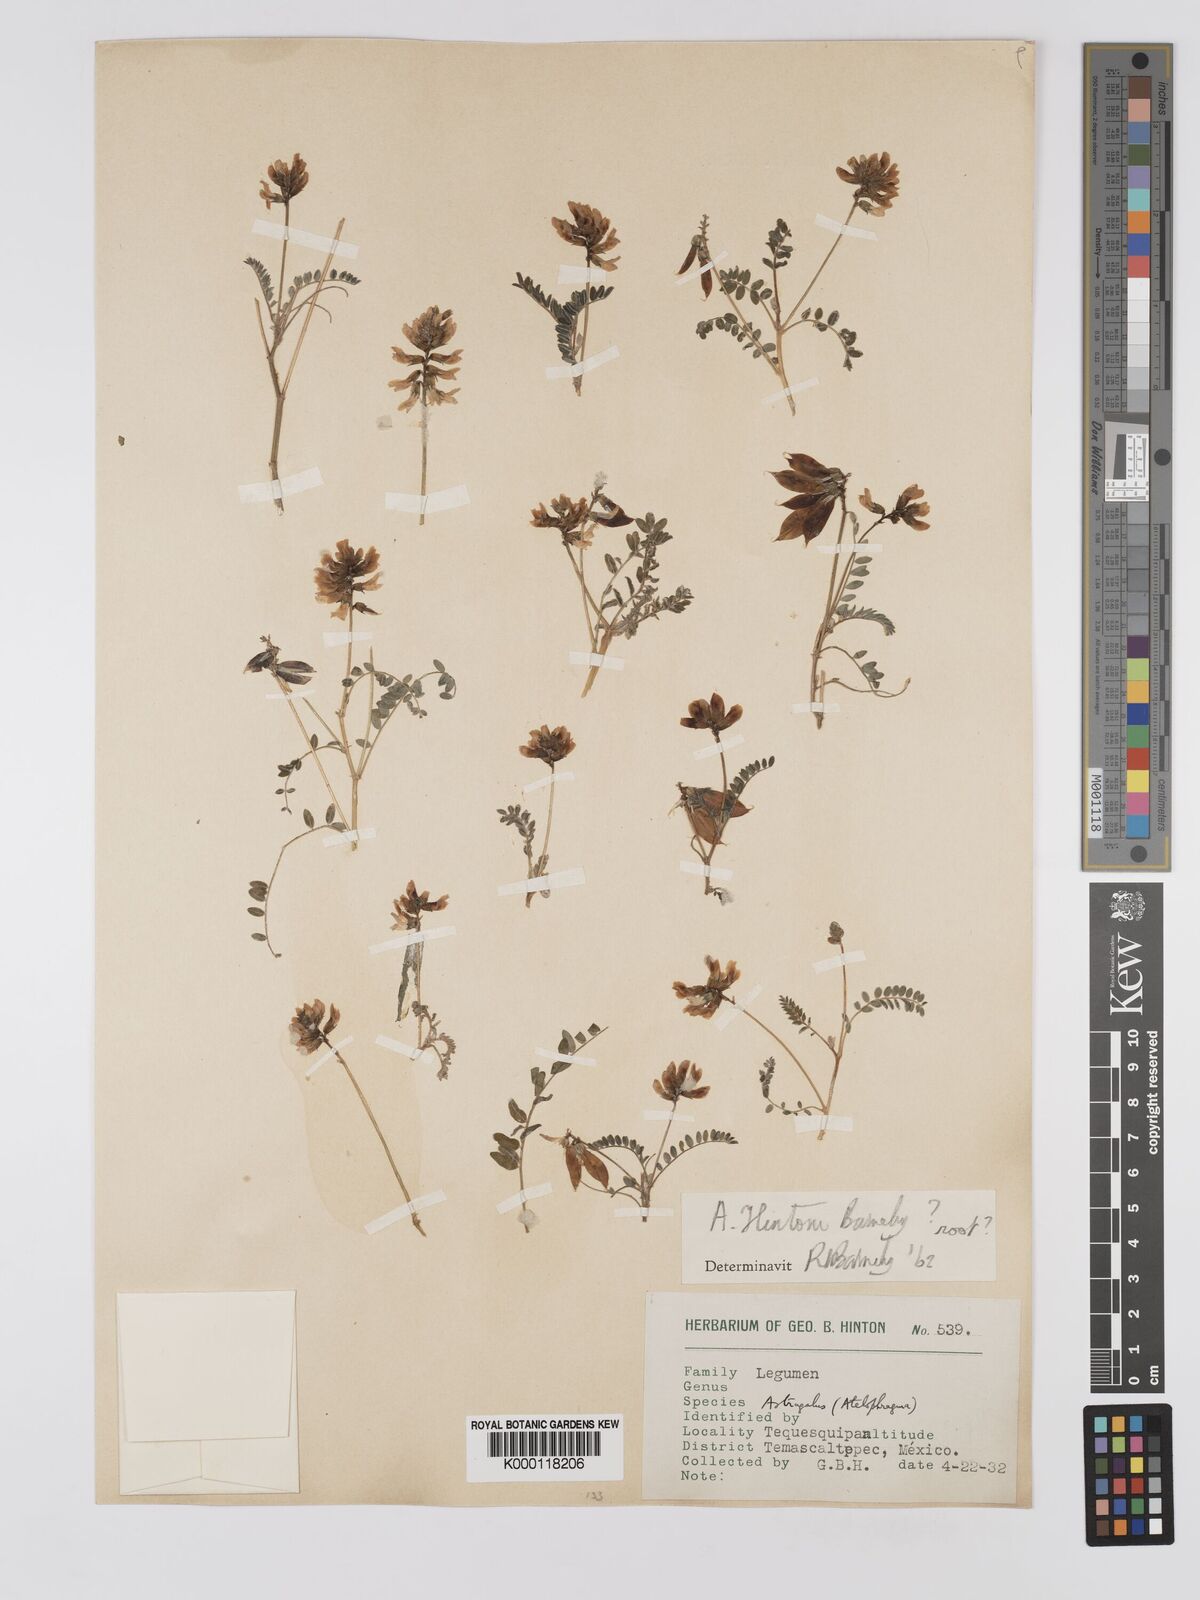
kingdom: Plantae
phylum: Tracheophyta
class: Magnoliopsida
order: Fabales
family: Fabaceae
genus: Astragalus
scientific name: Astragalus hintonii
